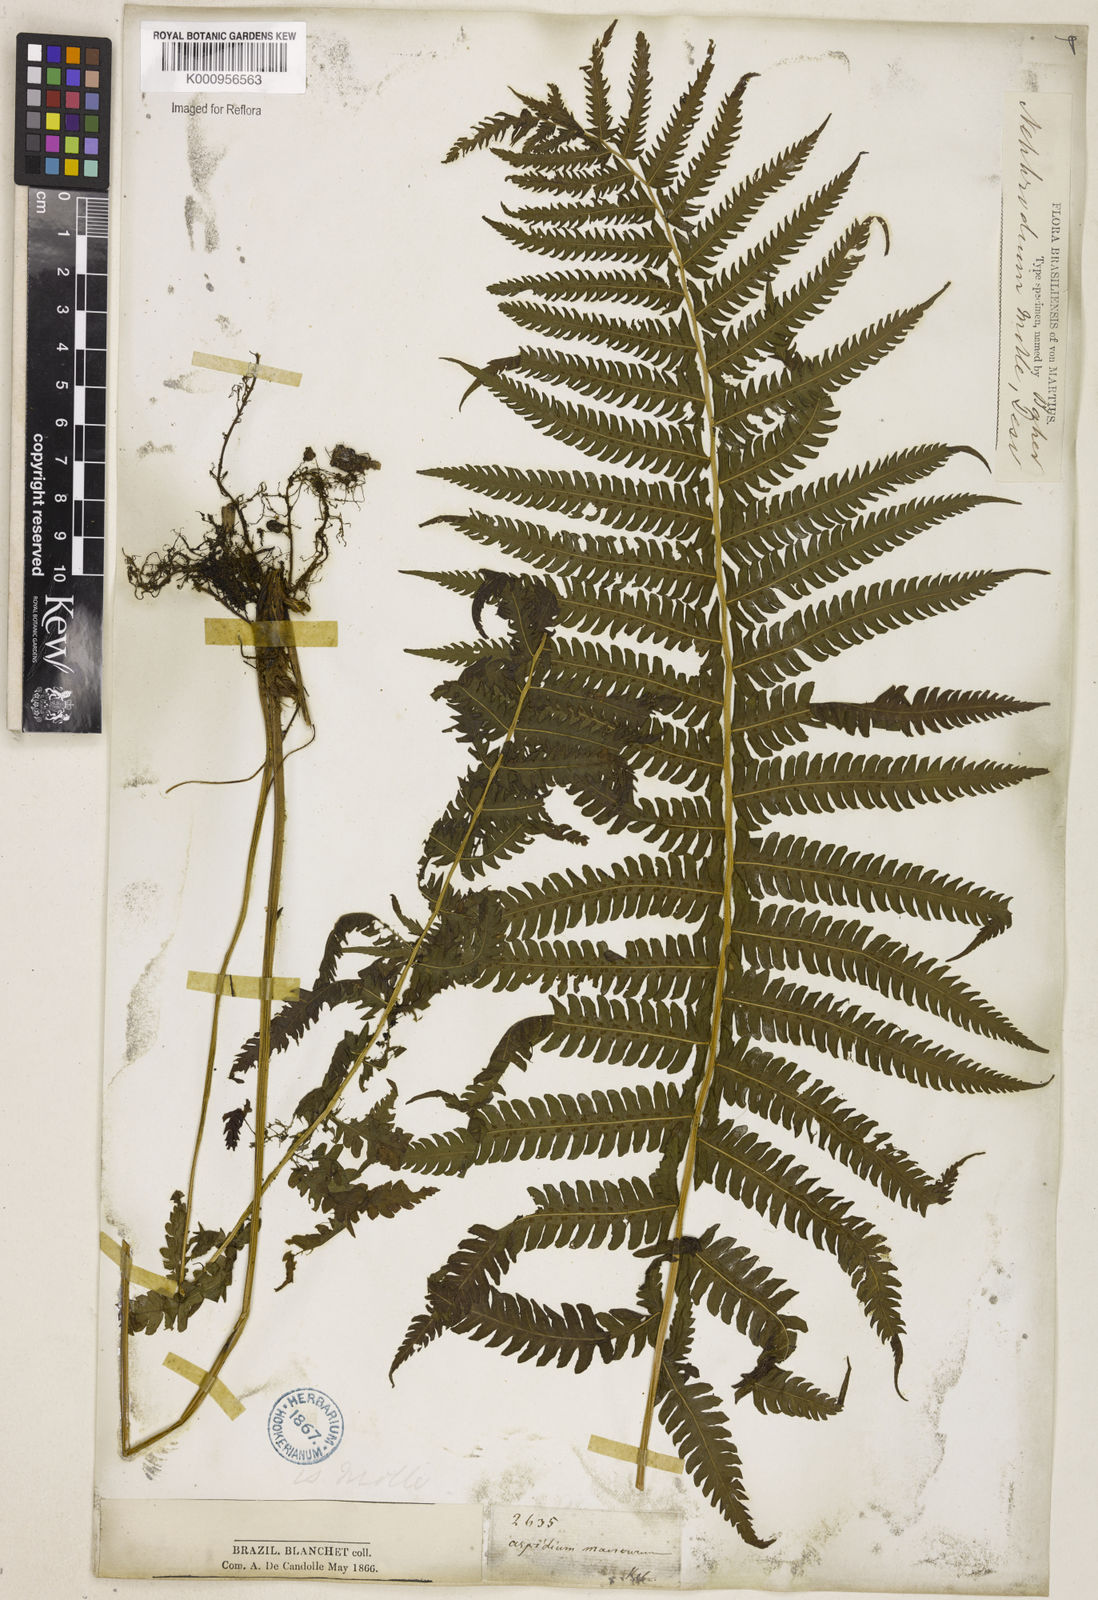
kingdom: Plantae
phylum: Tracheophyta
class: Polypodiopsida
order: Polypodiales
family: Thelypteridaceae
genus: Christella
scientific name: Christella hispidula
